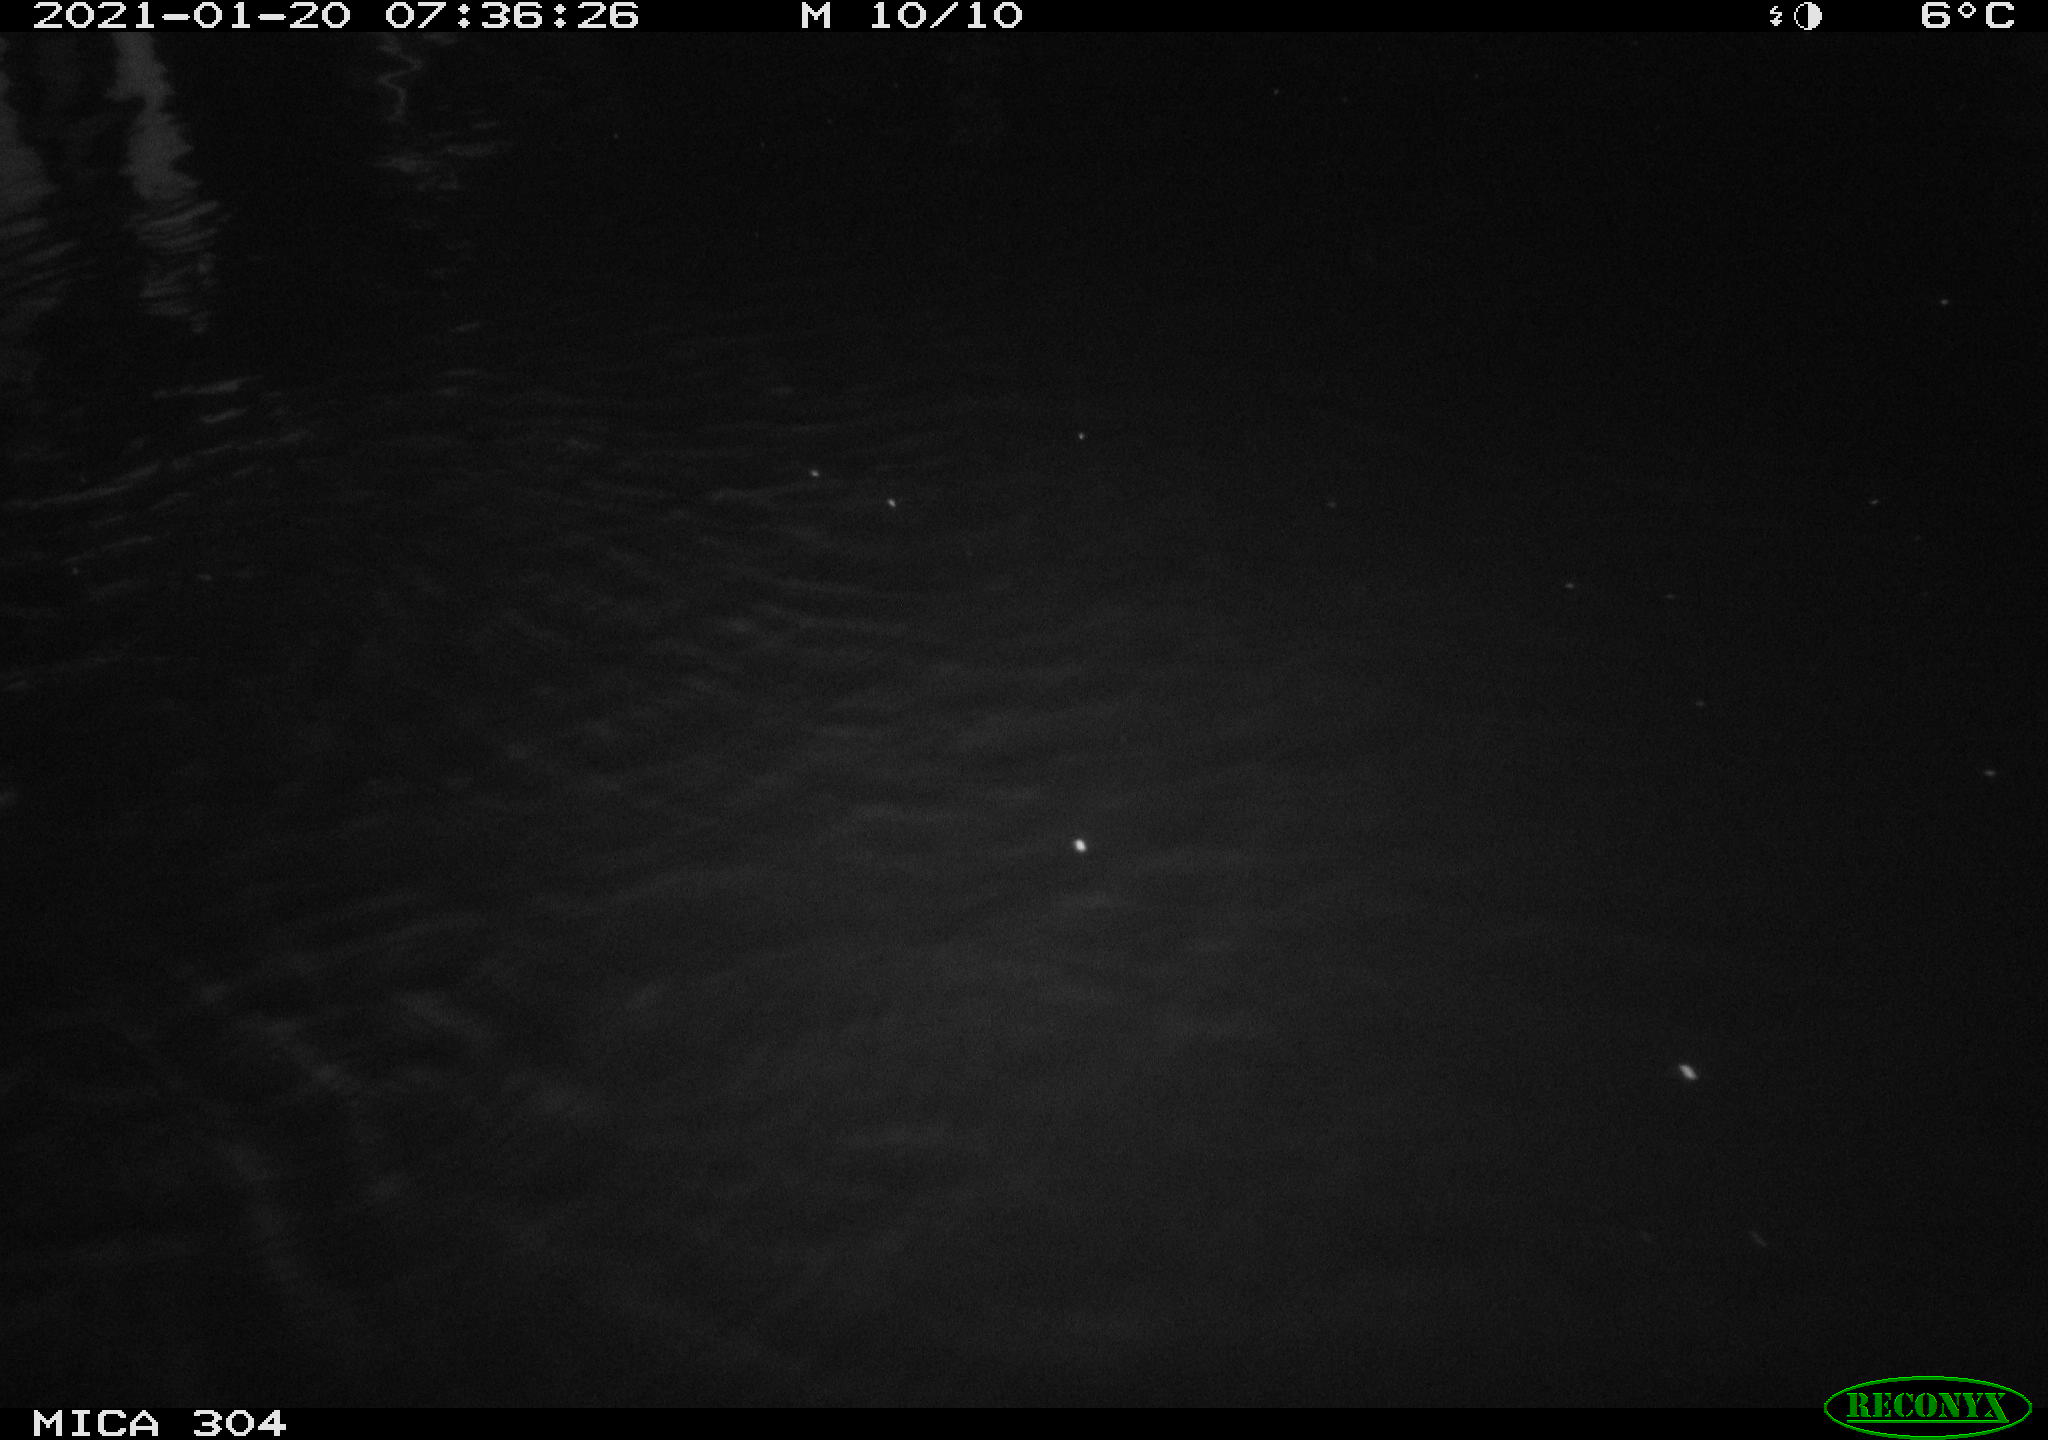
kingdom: Animalia
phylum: Chordata
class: Aves
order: Gruiformes
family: Rallidae
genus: Fulica
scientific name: Fulica atra
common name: Eurasian coot
